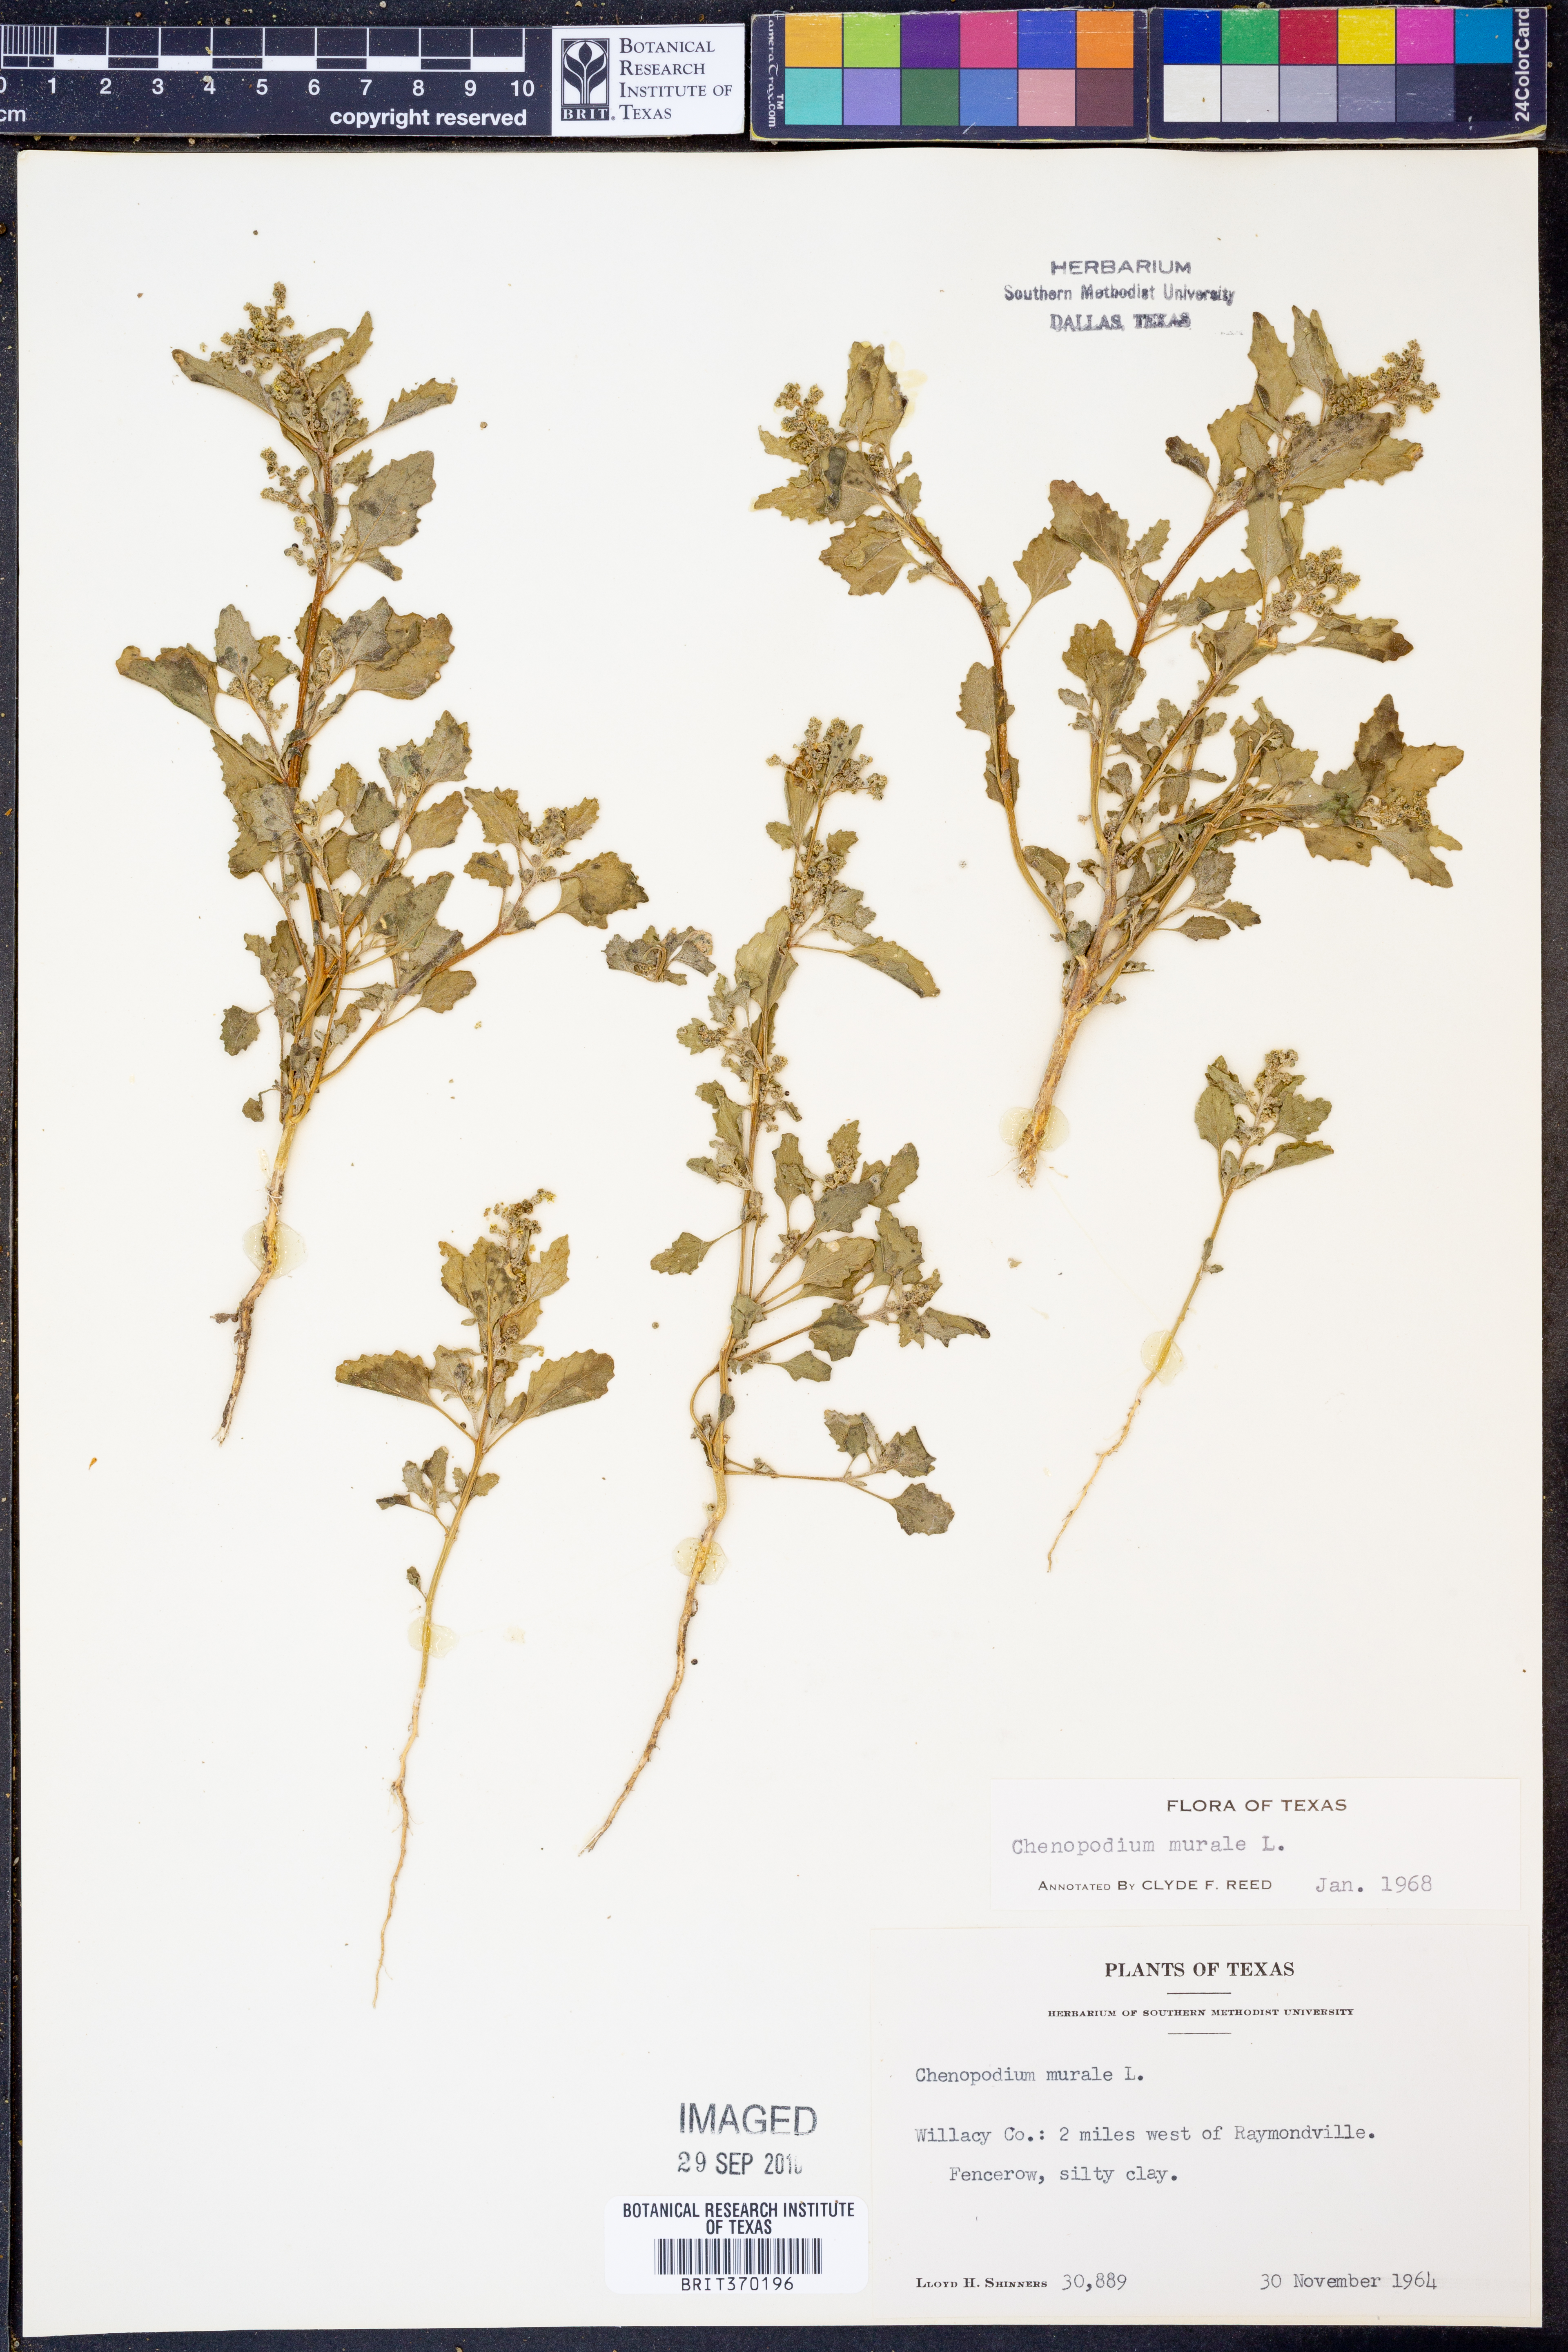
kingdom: Plantae
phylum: Tracheophyta
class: Magnoliopsida
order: Caryophyllales
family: Amaranthaceae
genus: Chenopodiastrum
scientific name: Chenopodiastrum murale
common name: Sowbane
